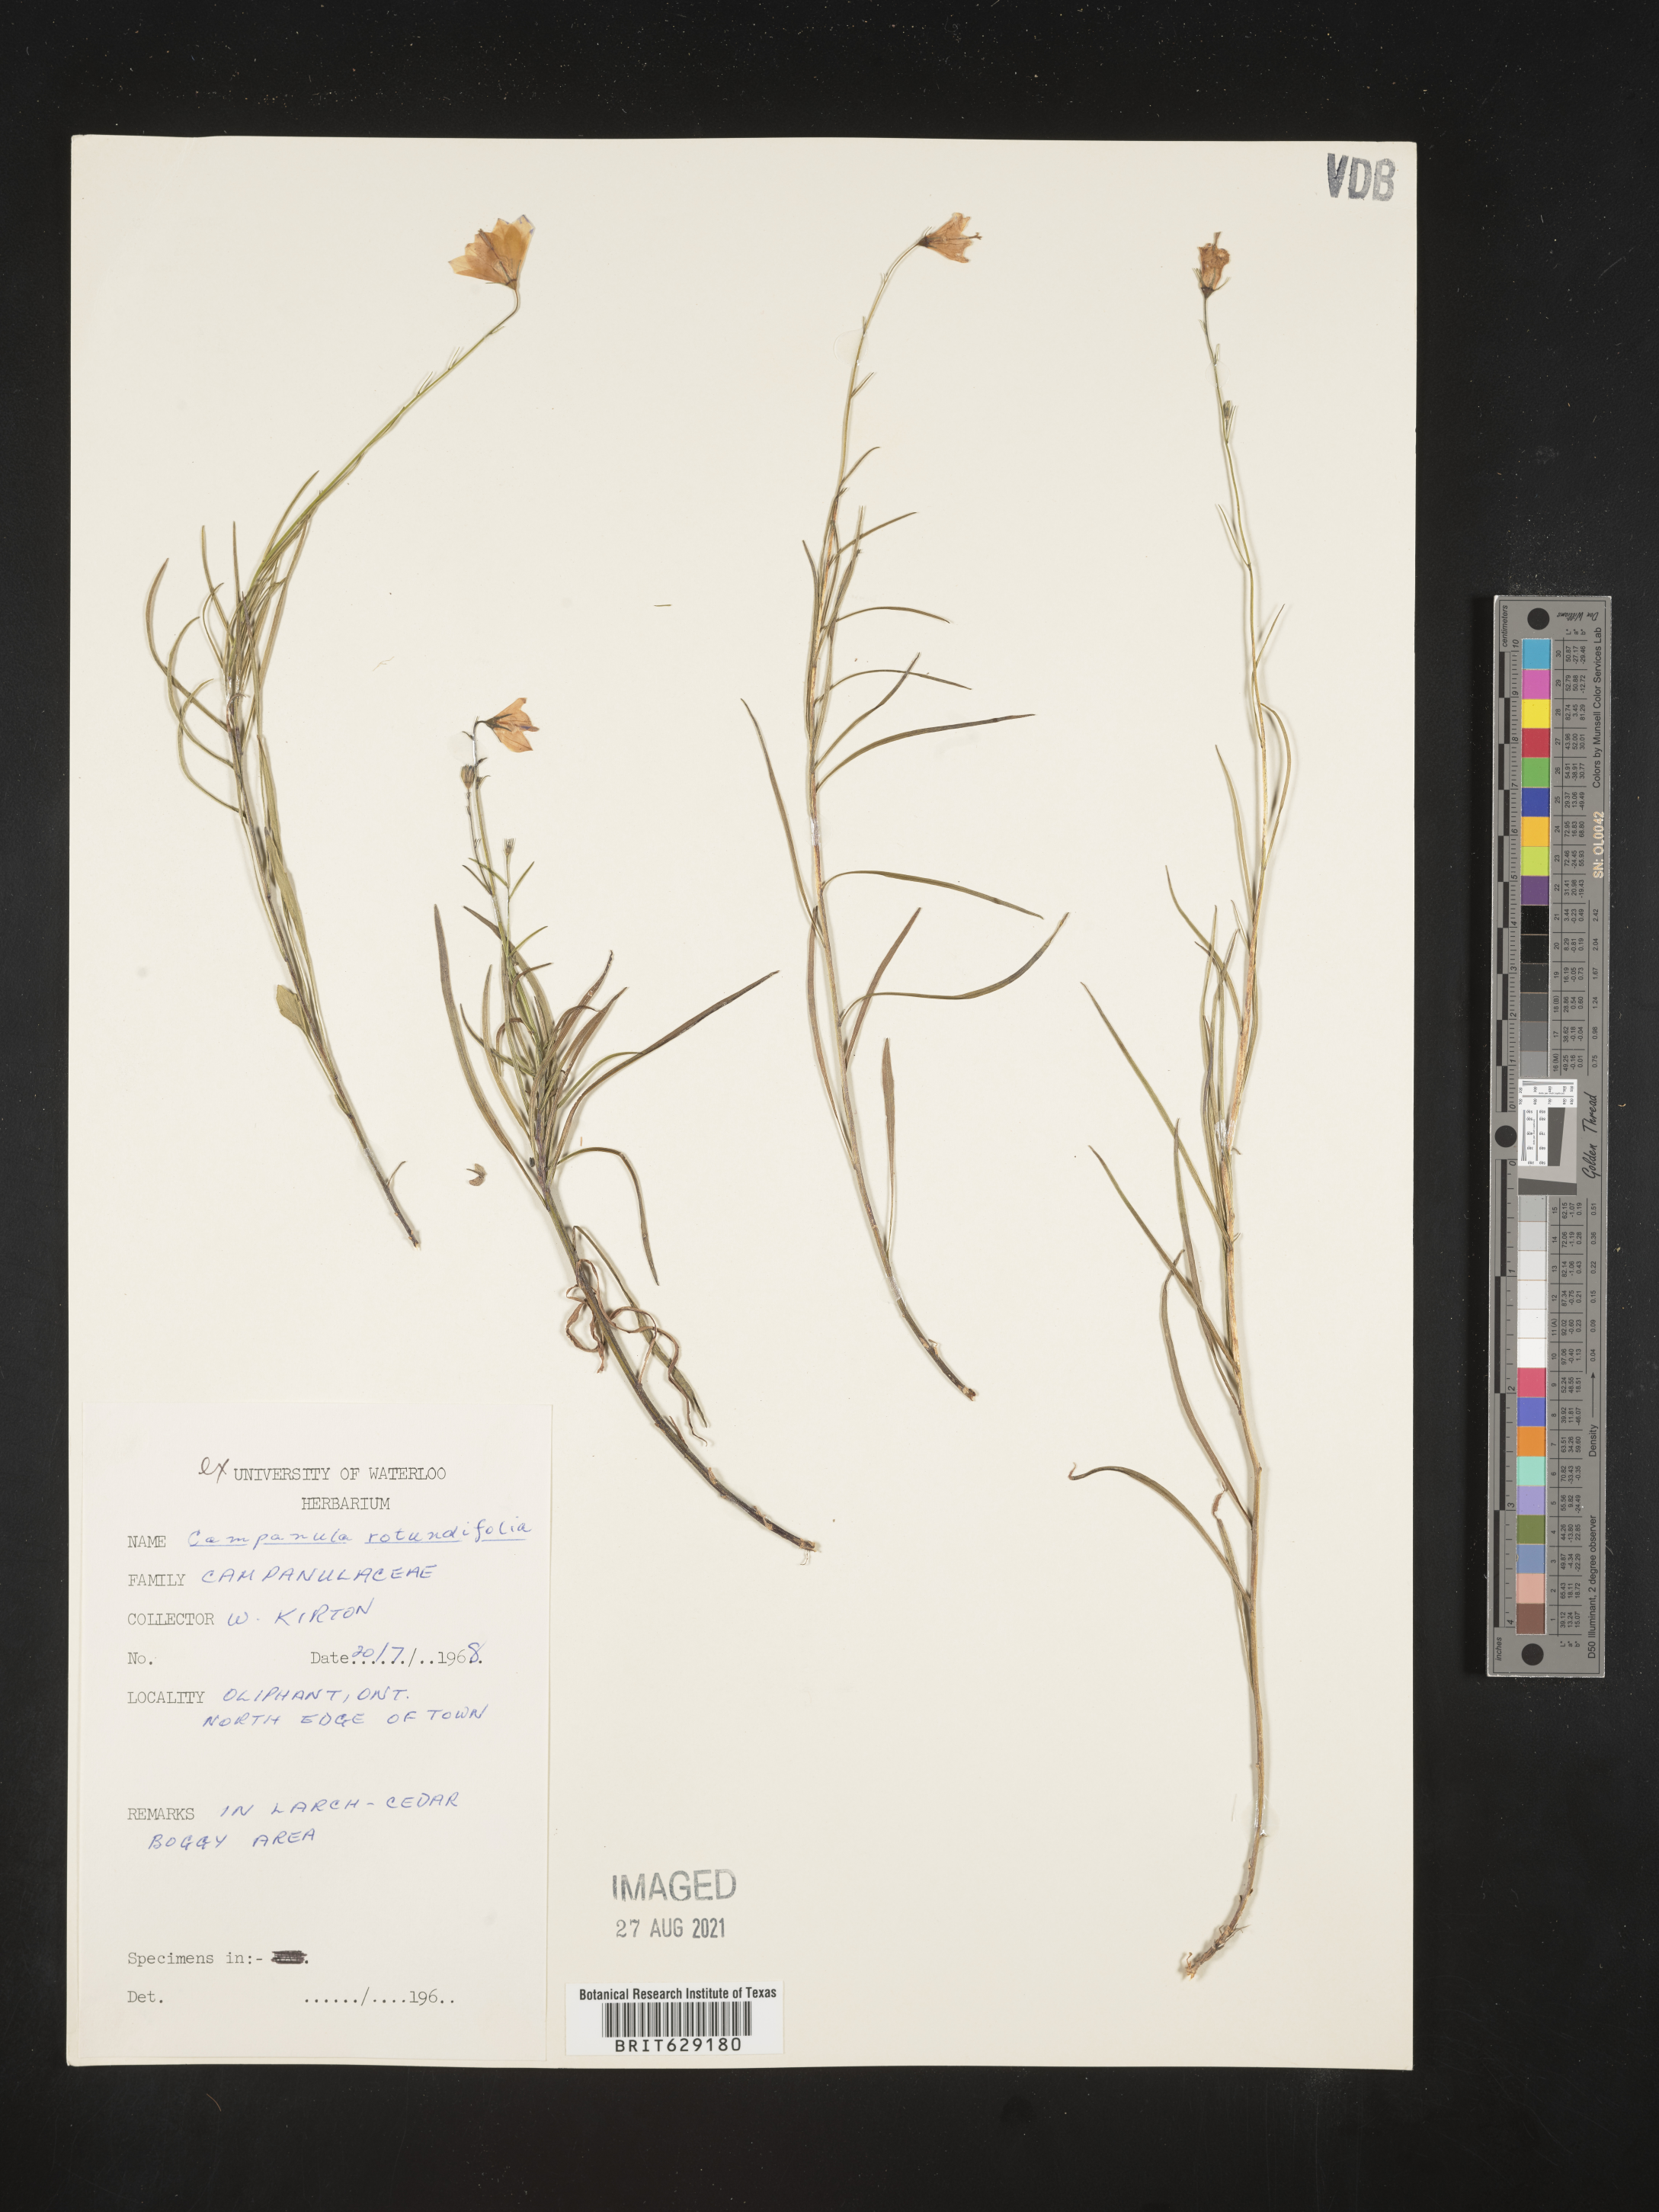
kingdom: Plantae
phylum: Tracheophyta
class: Magnoliopsida
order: Asterales
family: Campanulaceae
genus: Campanula
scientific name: Campanula rotundifolia
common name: Harebell
